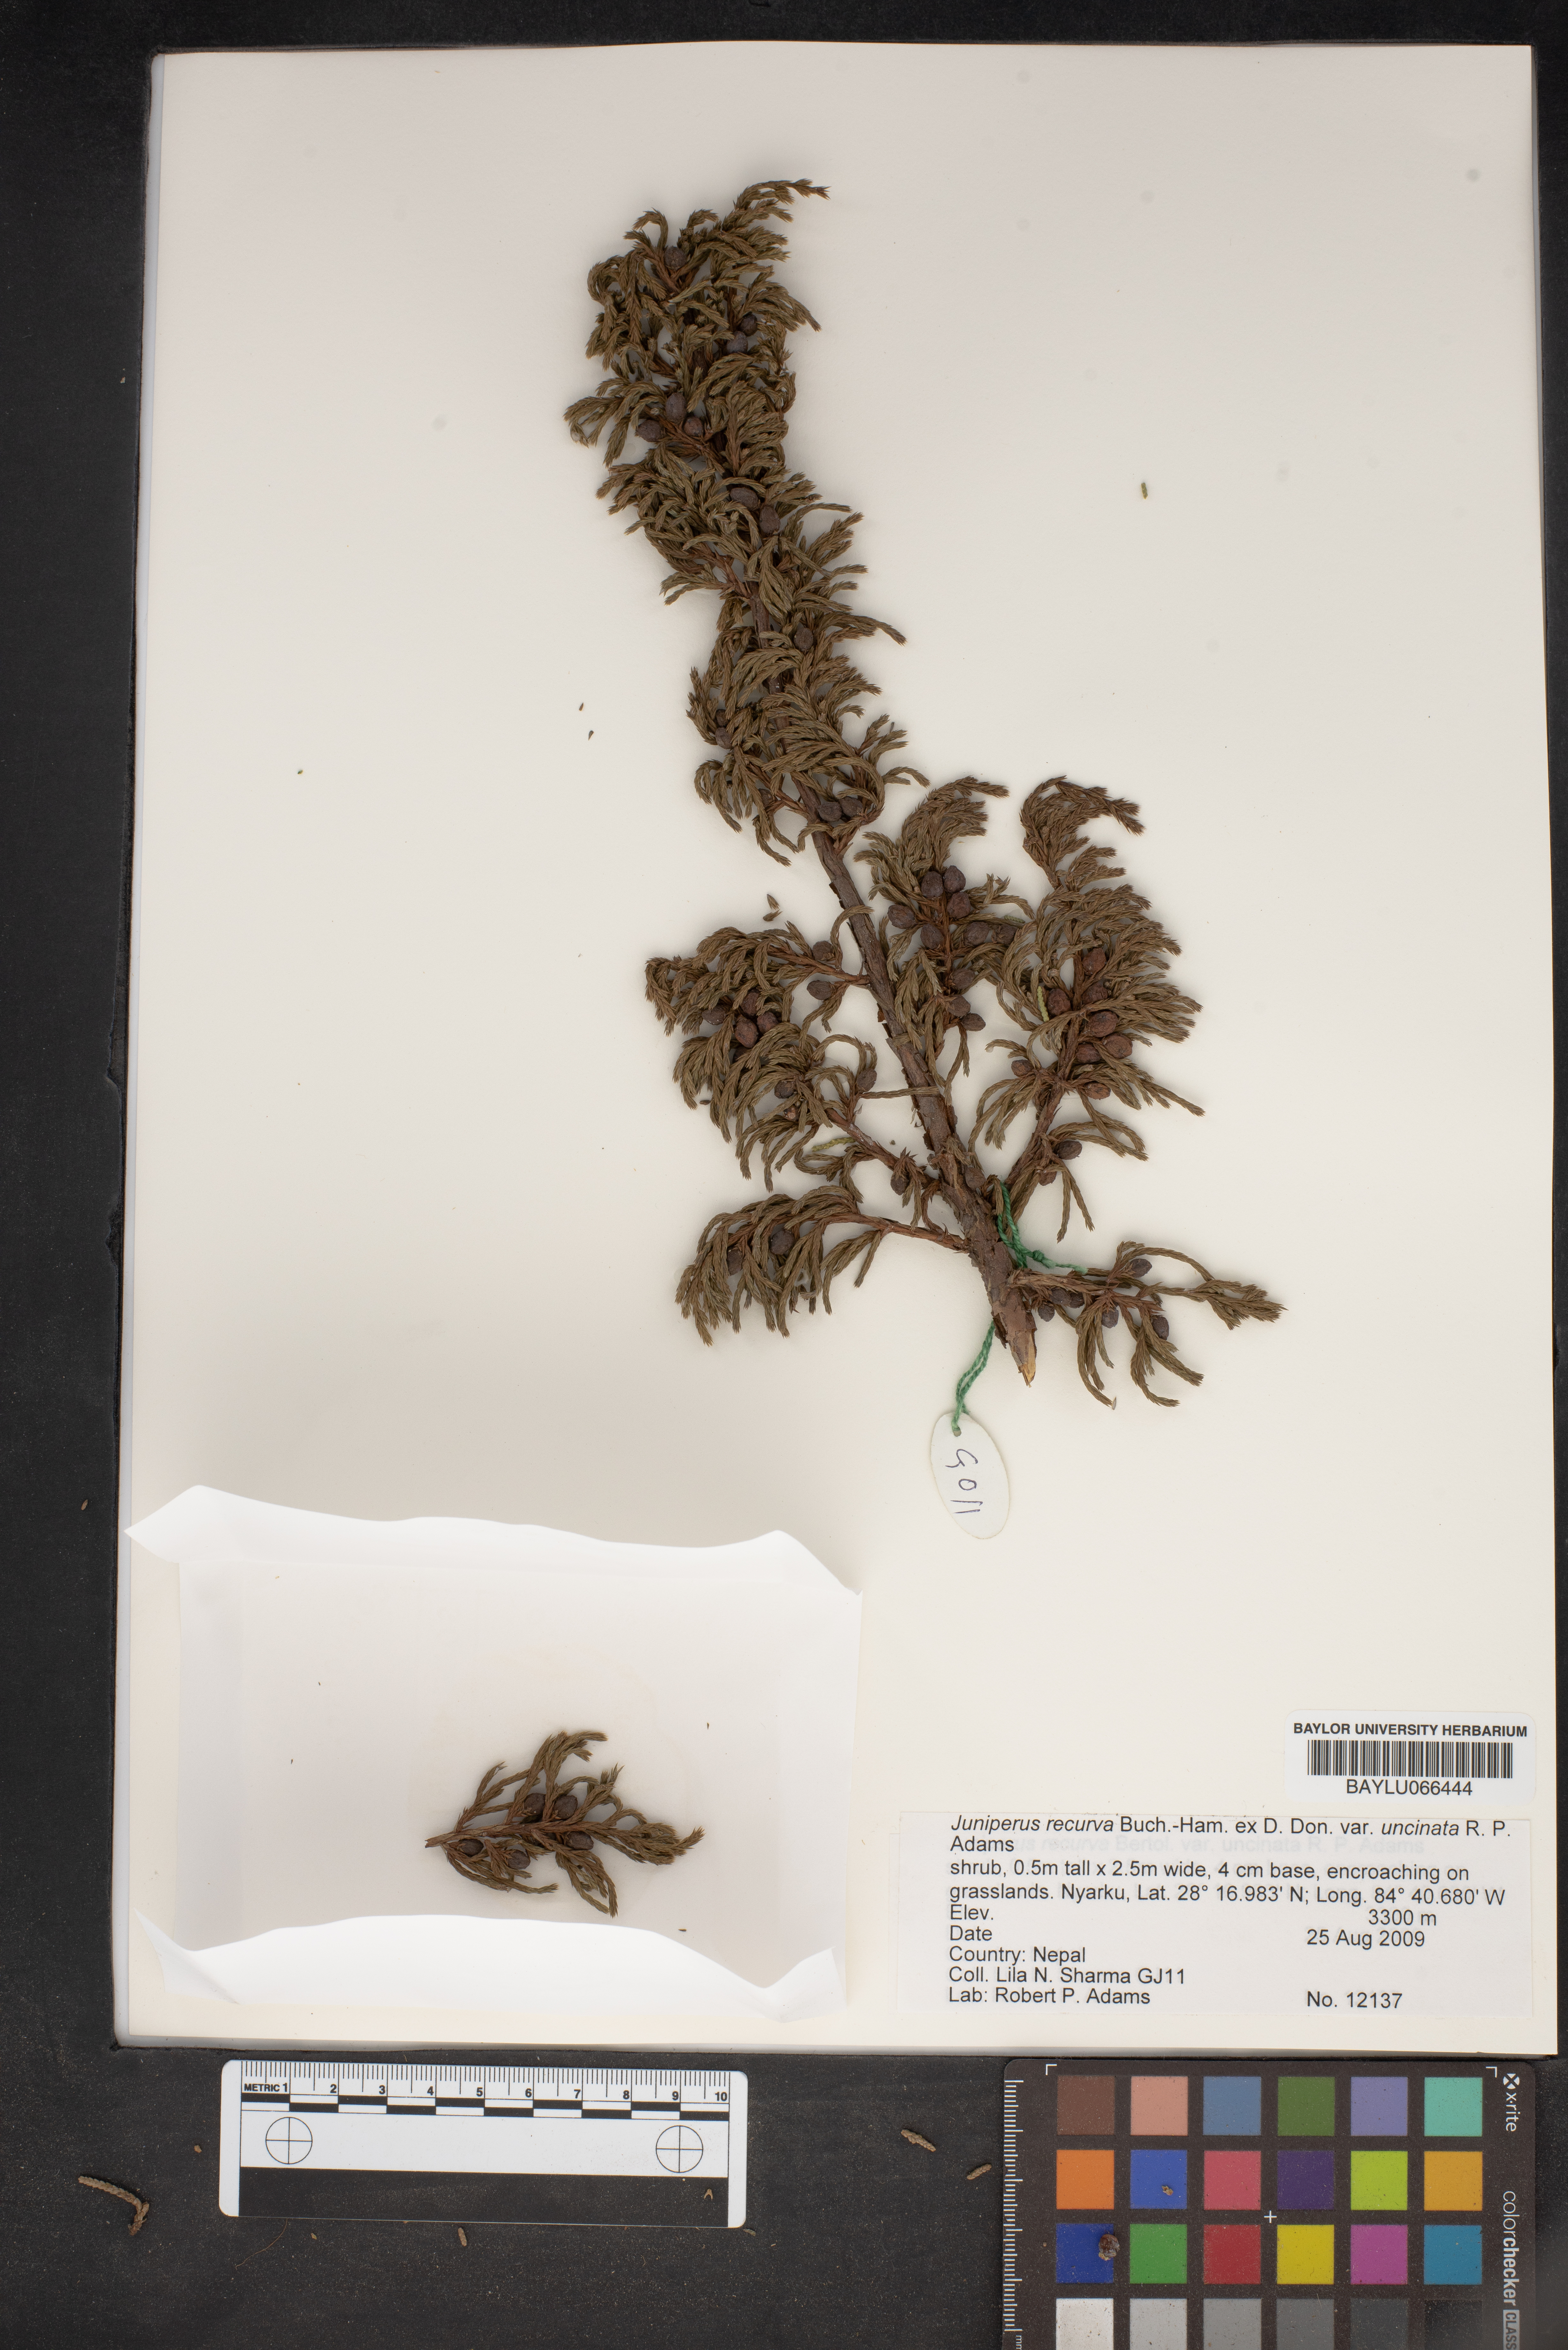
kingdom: Plantae
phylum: Tracheophyta
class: Pinopsida
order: Pinales
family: Cupressaceae
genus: Juniperus
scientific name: Juniperus recurva
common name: Drooping juniper
